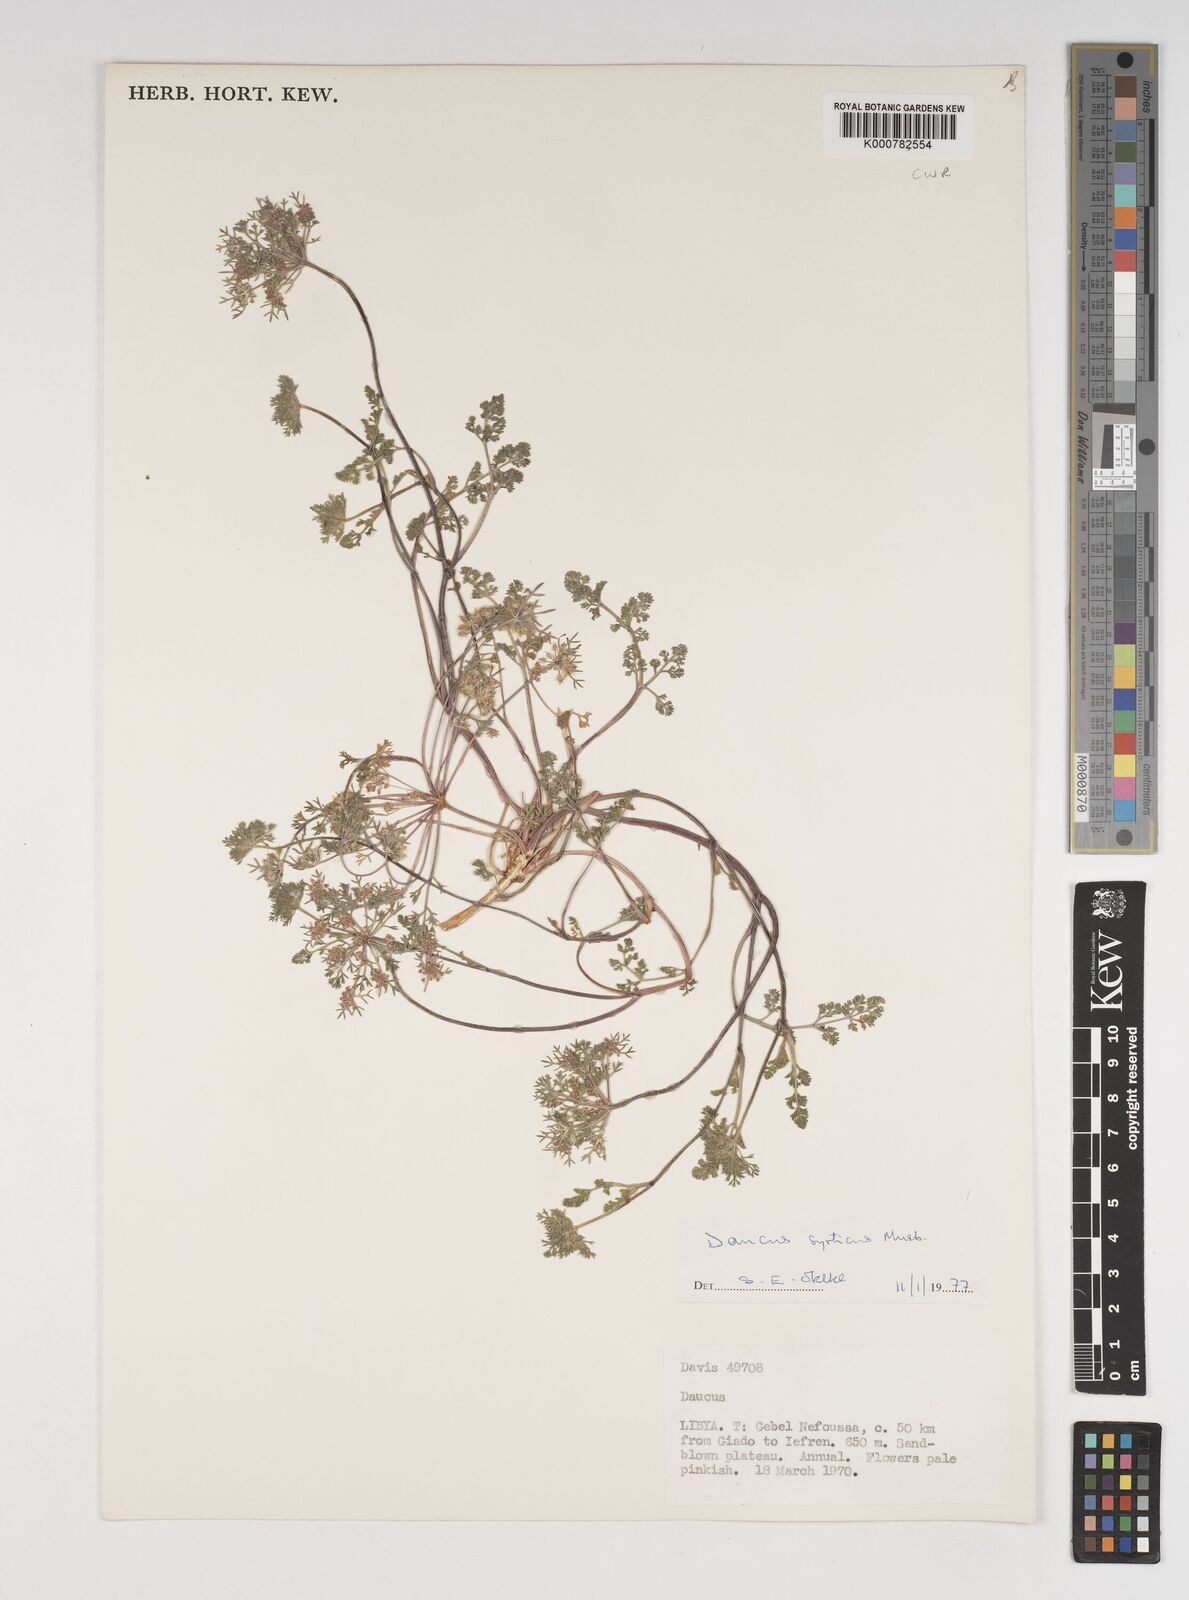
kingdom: Plantae
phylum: Tracheophyta
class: Magnoliopsida
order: Apiales
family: Apiaceae
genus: Daucus
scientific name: Daucus syrticus
